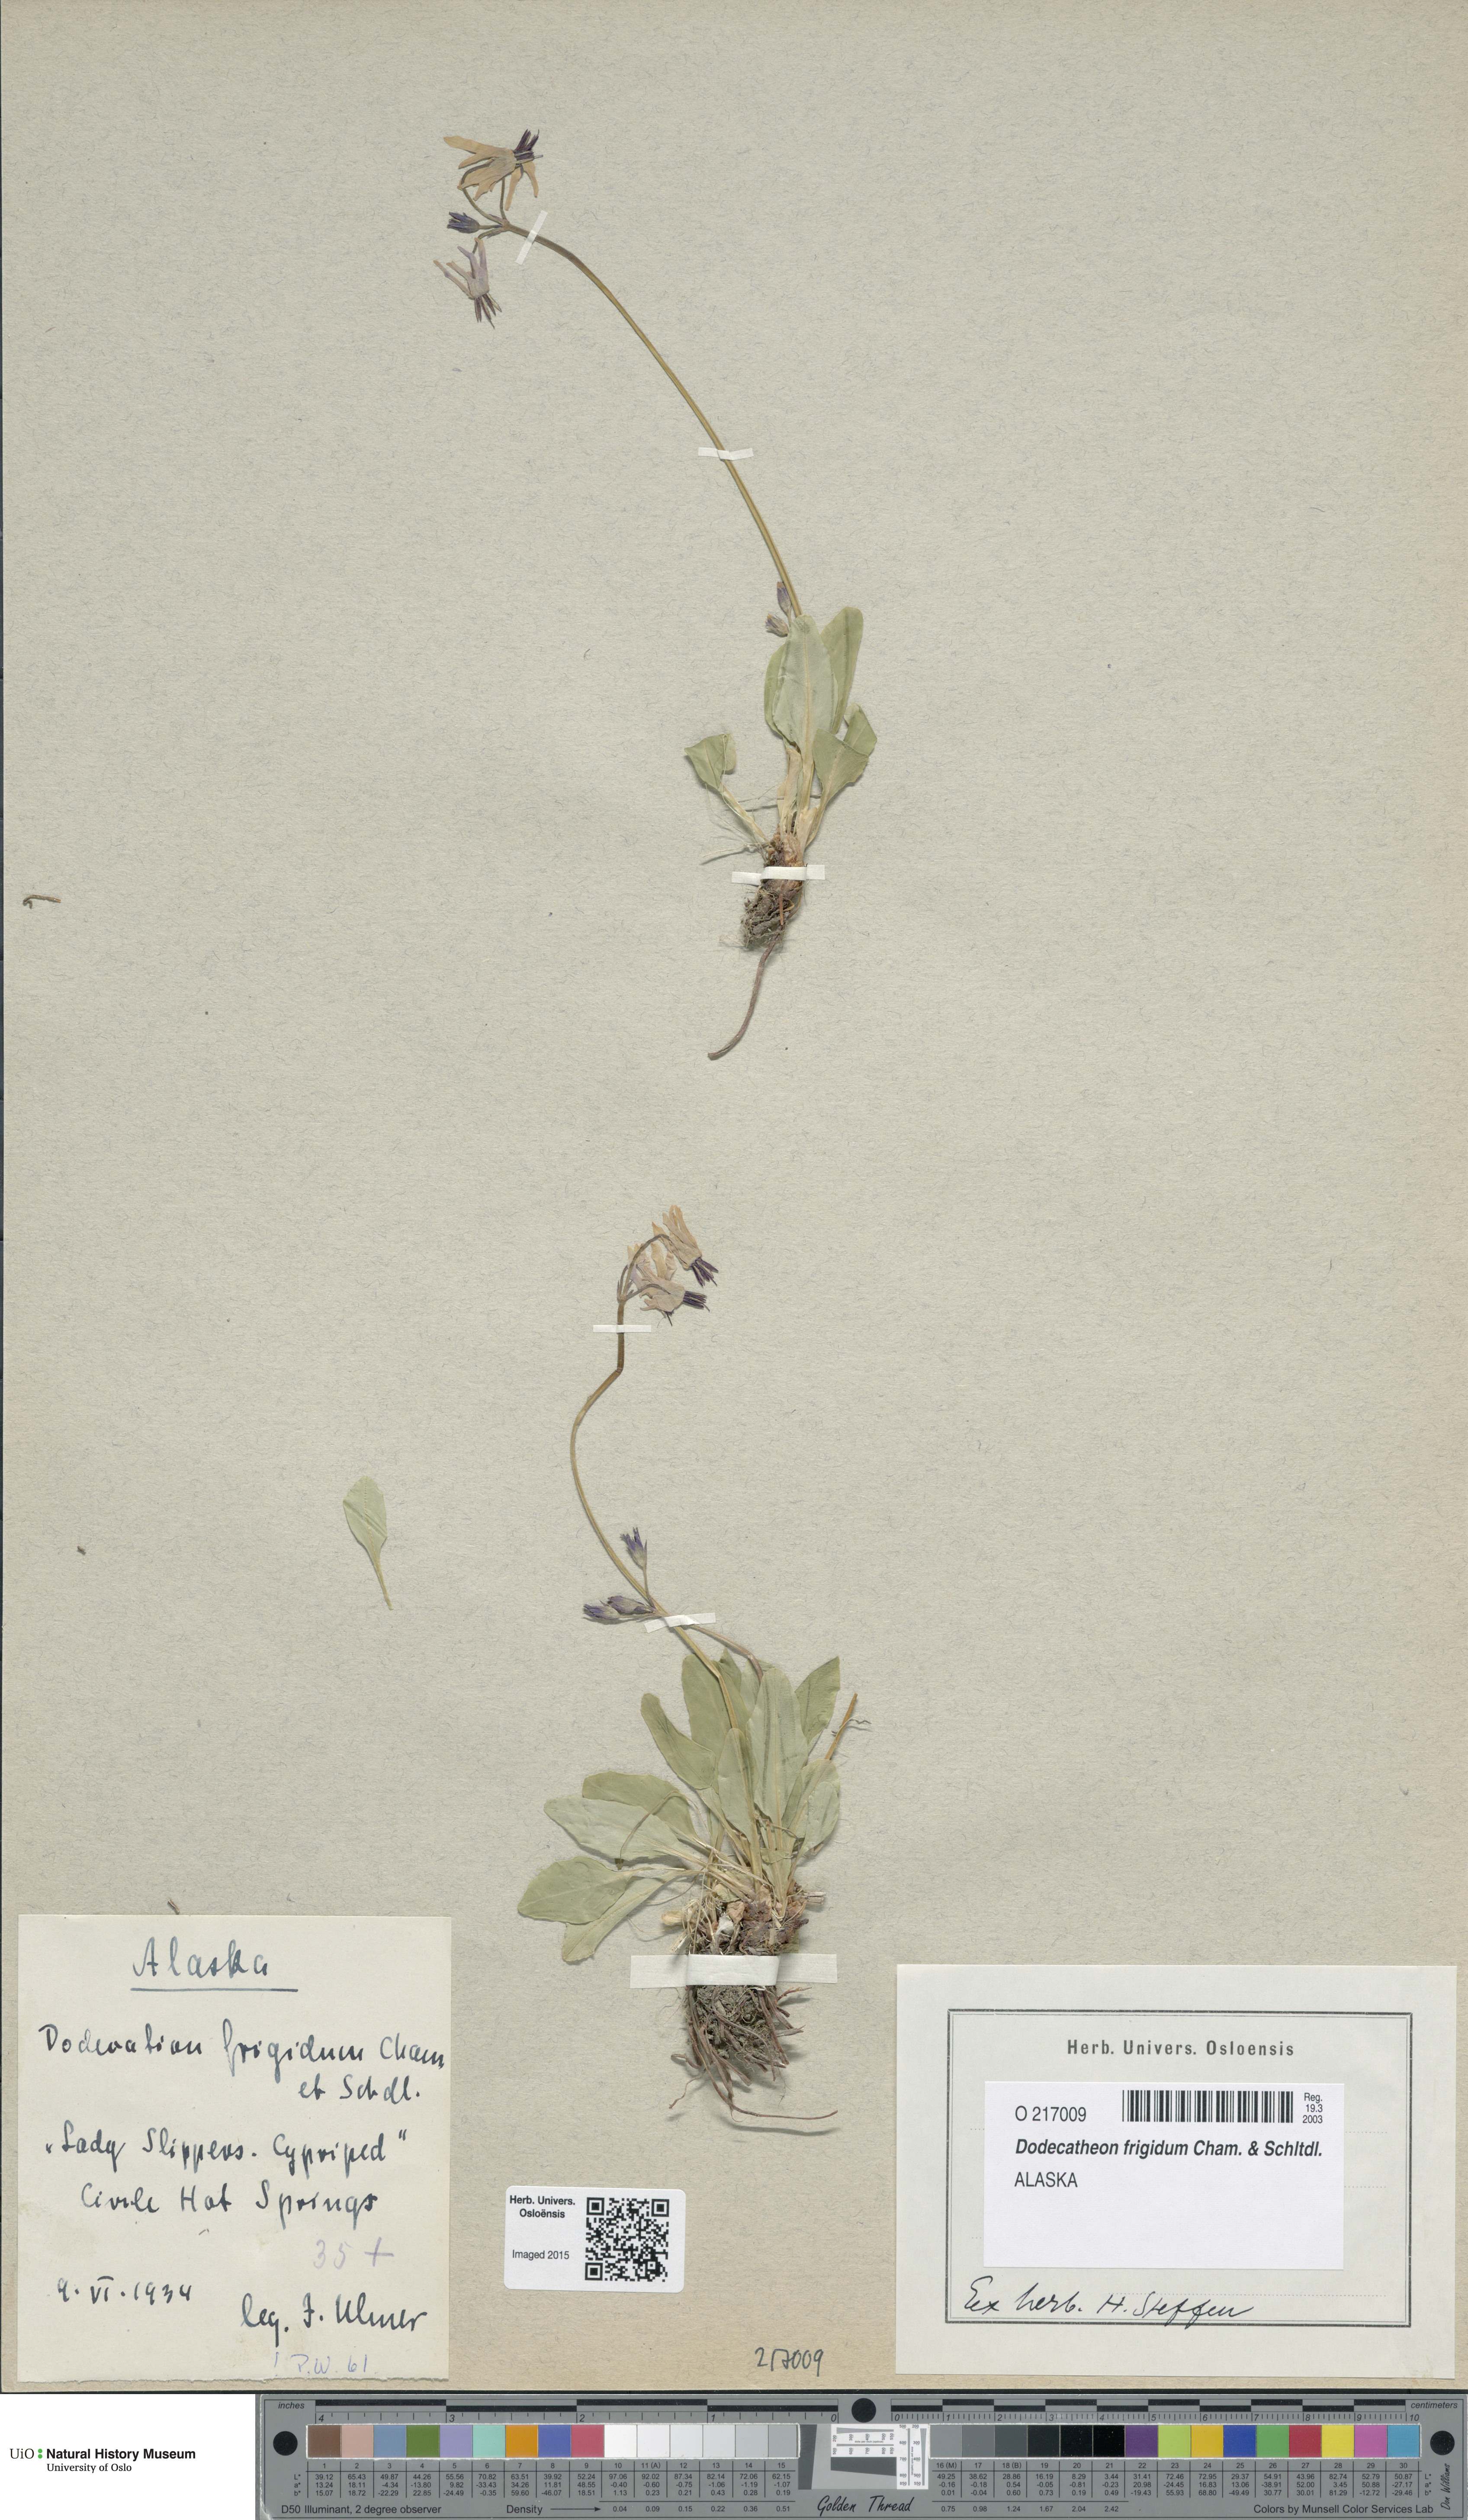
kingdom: Plantae
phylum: Tracheophyta
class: Magnoliopsida
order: Ericales
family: Primulaceae
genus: Dodecatheon
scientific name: Dodecatheon frigidum
